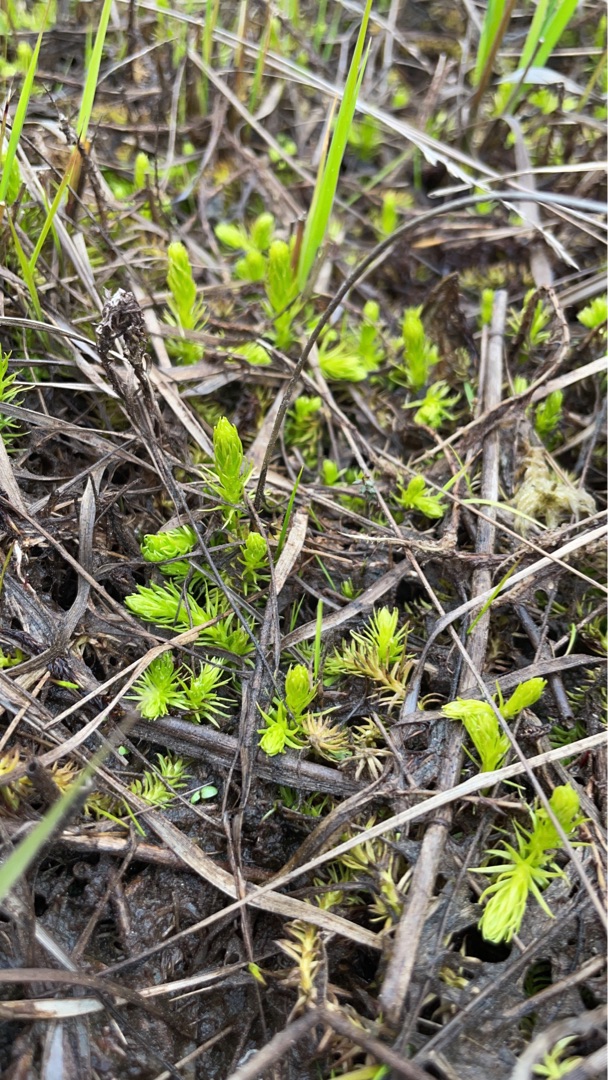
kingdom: Plantae
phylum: Tracheophyta
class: Lycopodiopsida
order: Lycopodiales
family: Lycopodiaceae
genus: Lycopodiella
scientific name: Lycopodiella inundata
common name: Liden ulvefod
